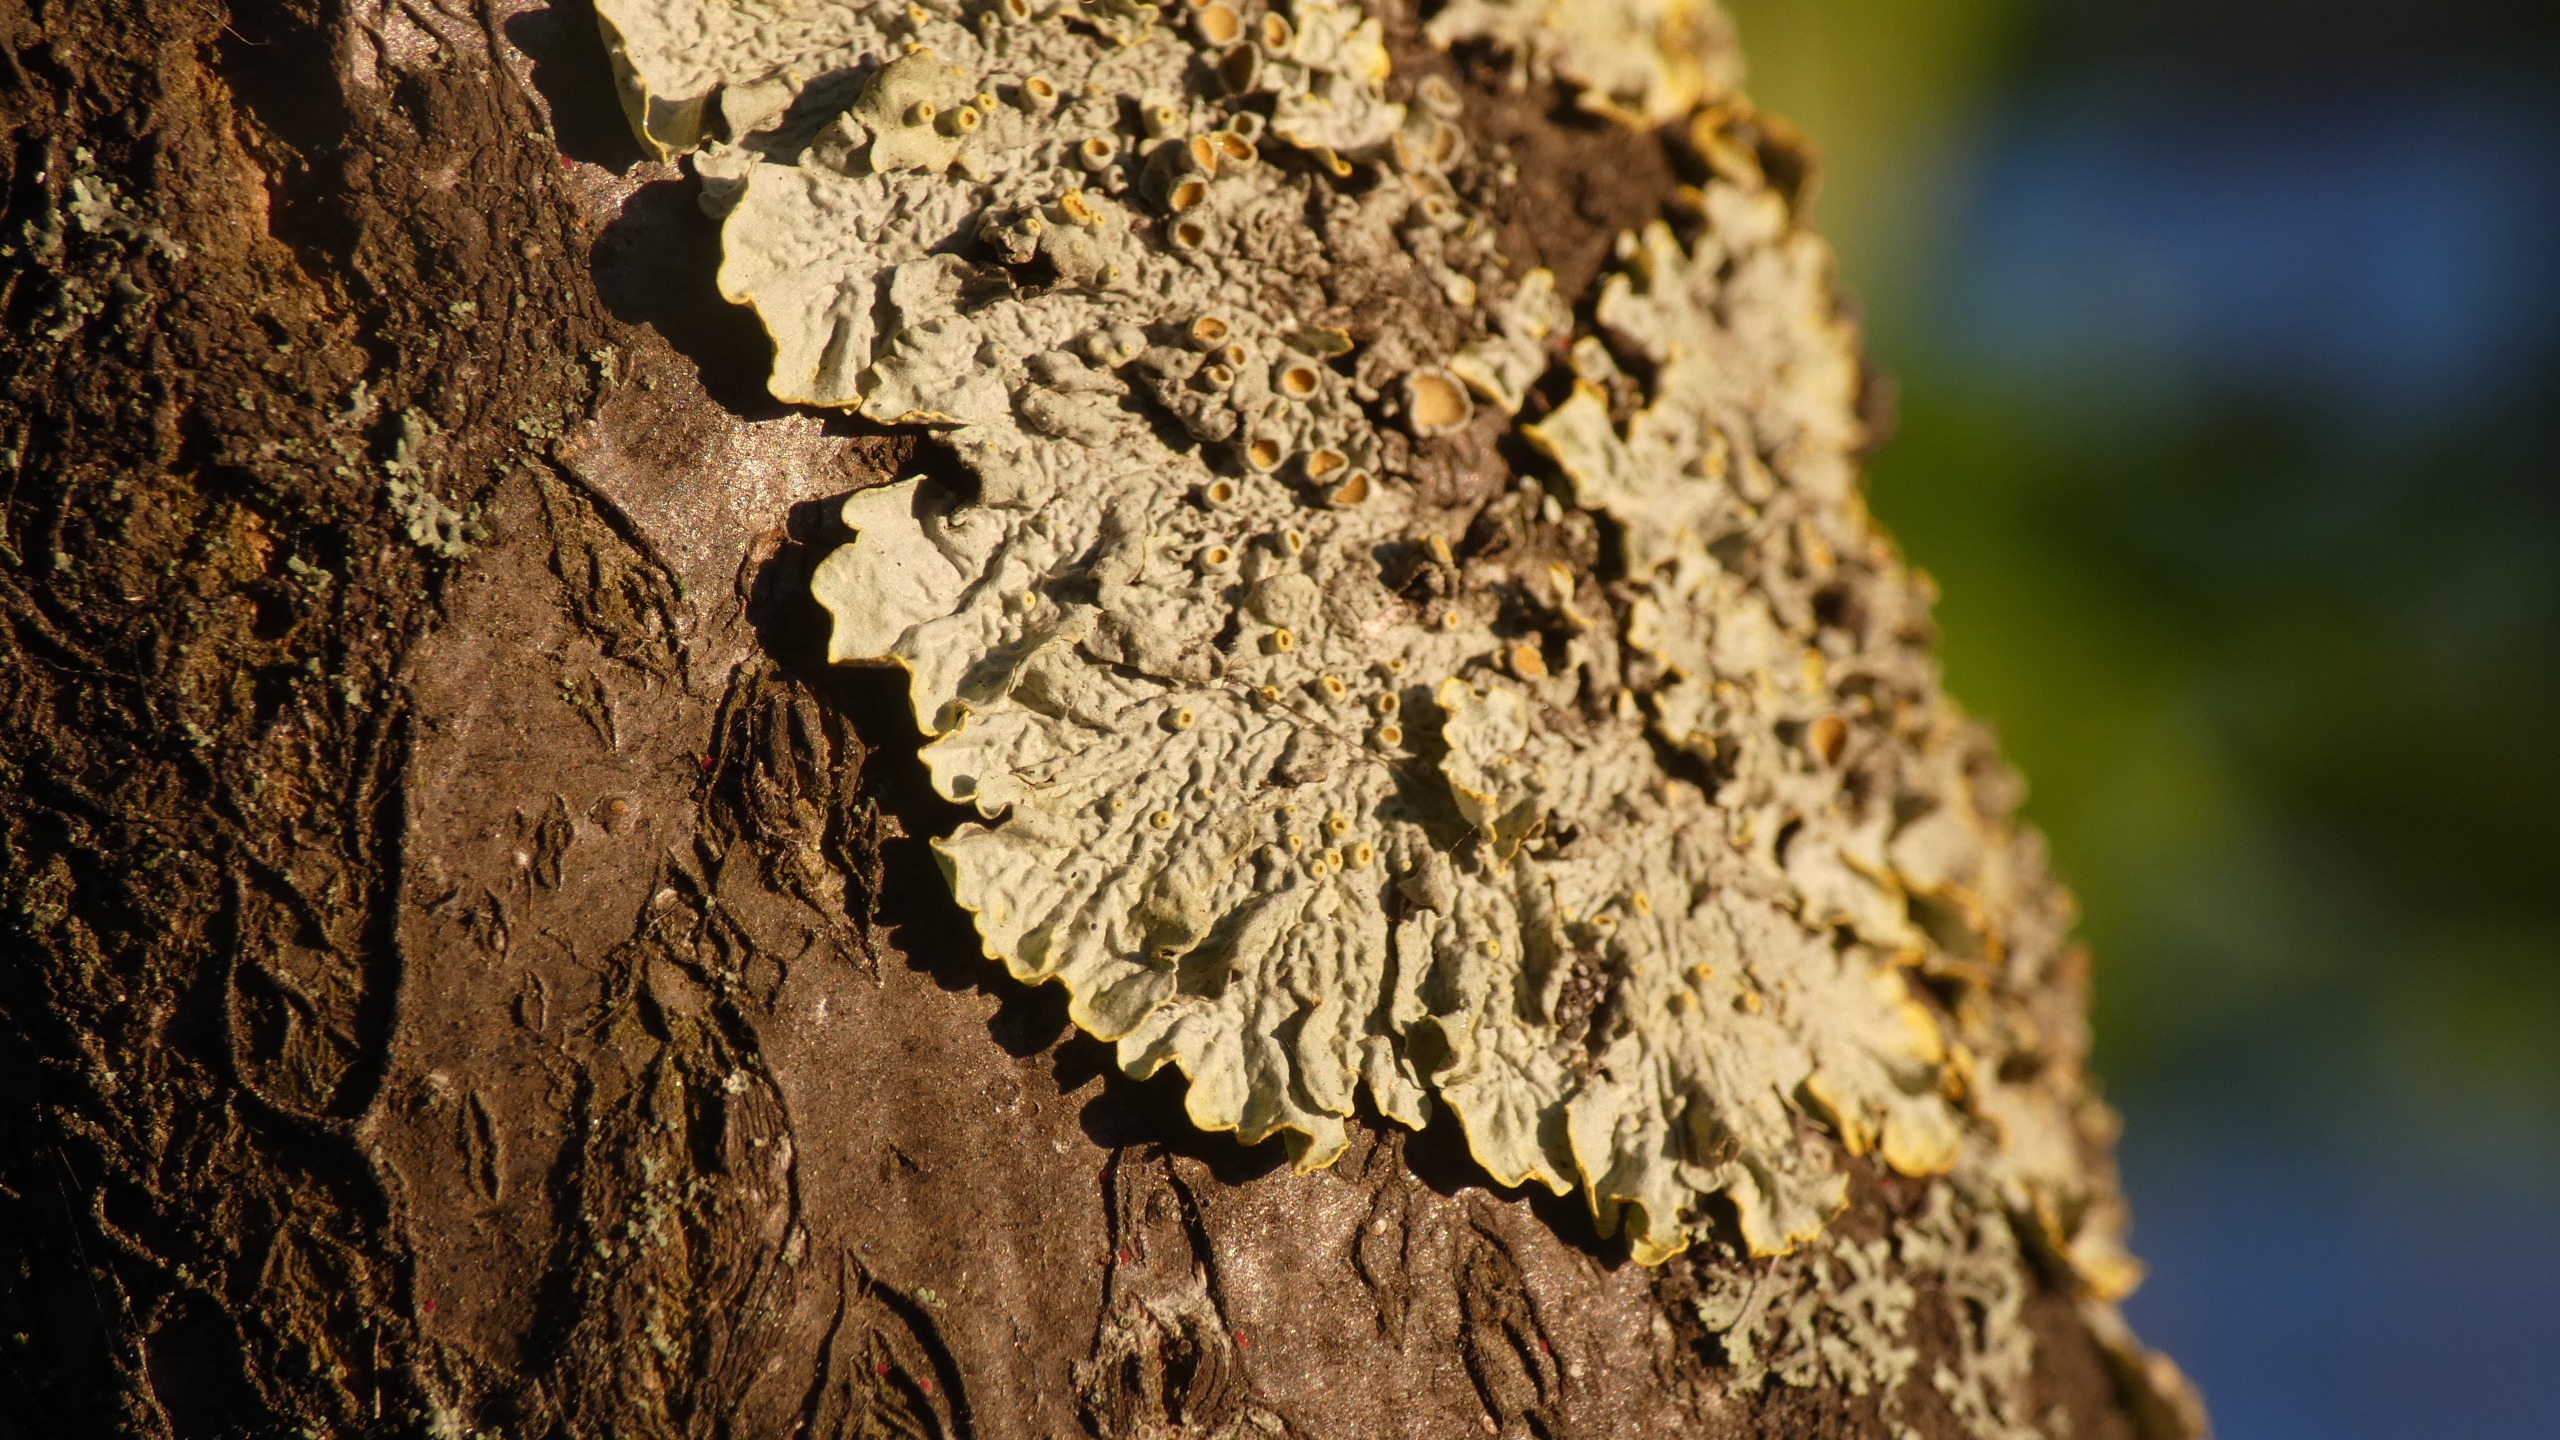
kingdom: Fungi
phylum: Ascomycota
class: Lecanoromycetes
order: Teloschistales
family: Teloschistaceae
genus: Xanthoria
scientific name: Xanthoria parietina
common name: Almindelig væggelav
